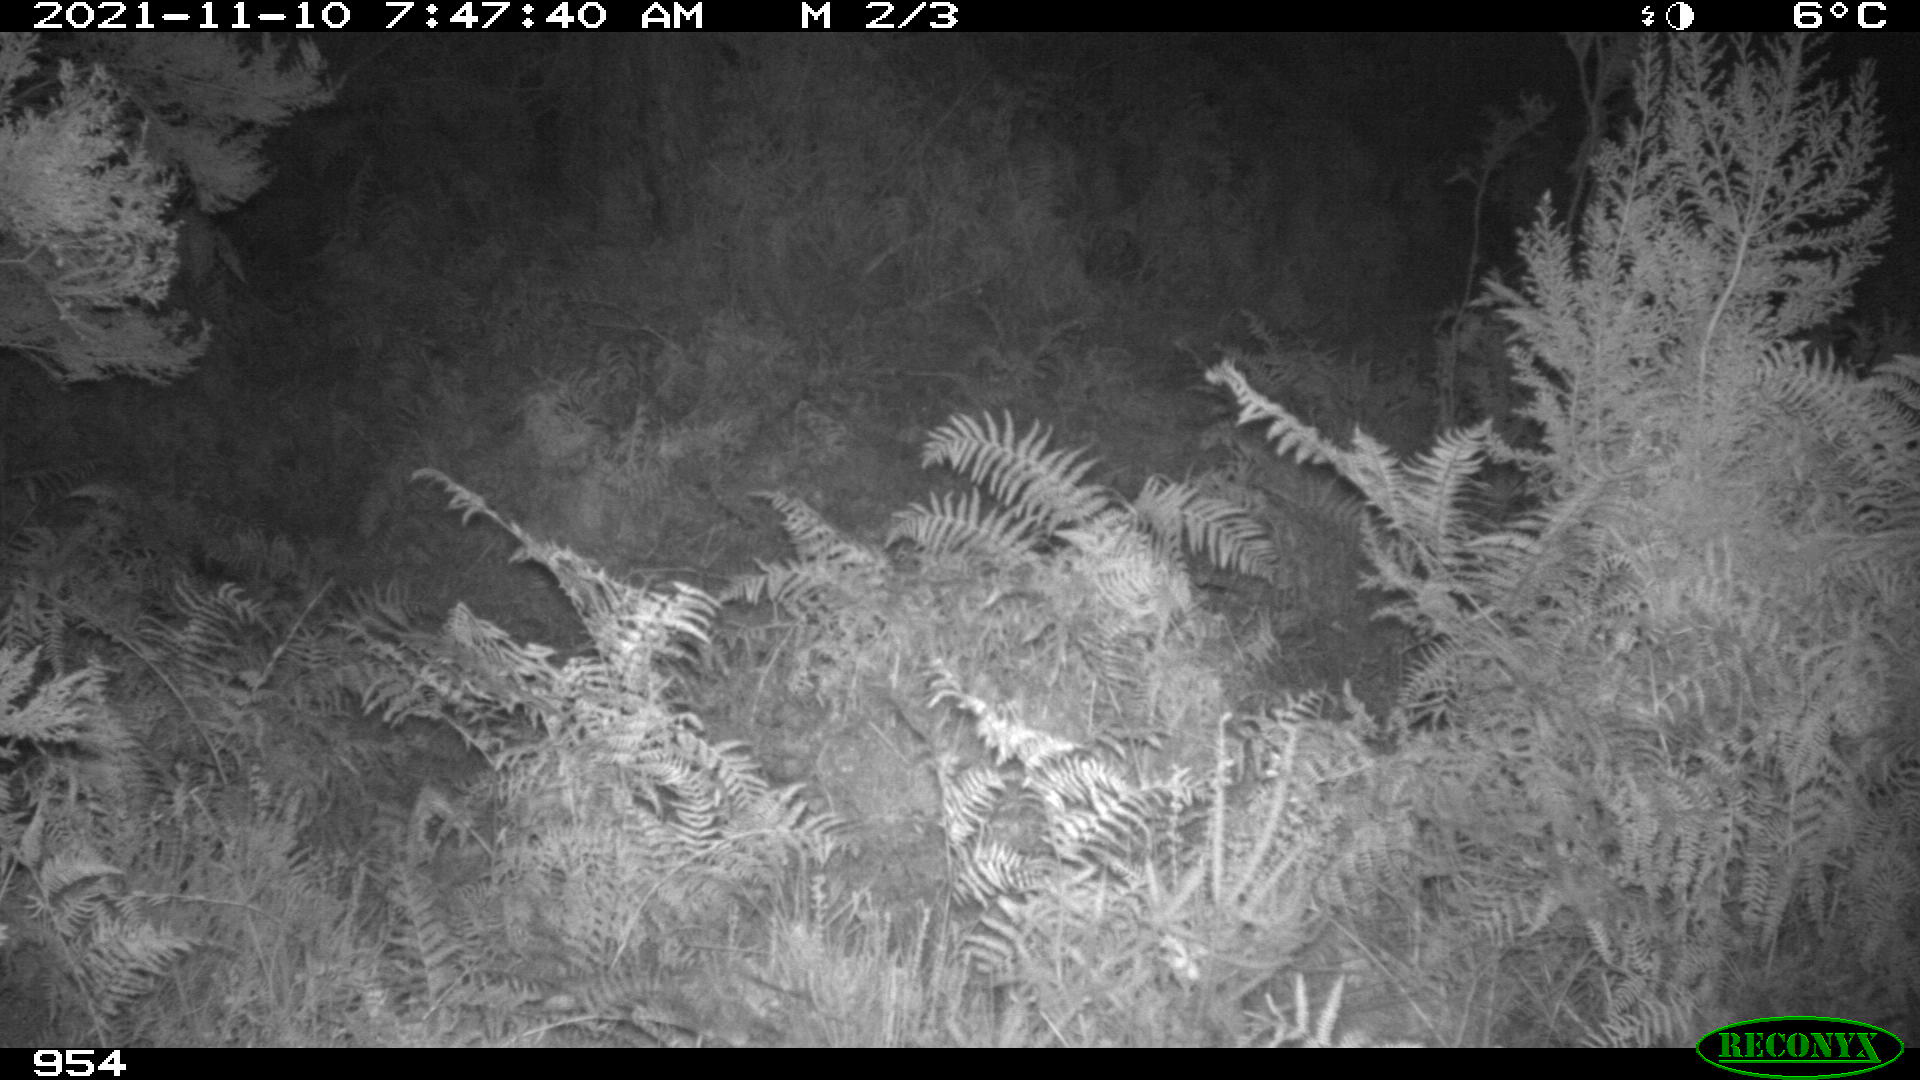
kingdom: Animalia
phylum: Chordata
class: Mammalia
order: Artiodactyla
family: Cervidae
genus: Capreolus
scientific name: Capreolus capreolus
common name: Western roe deer
